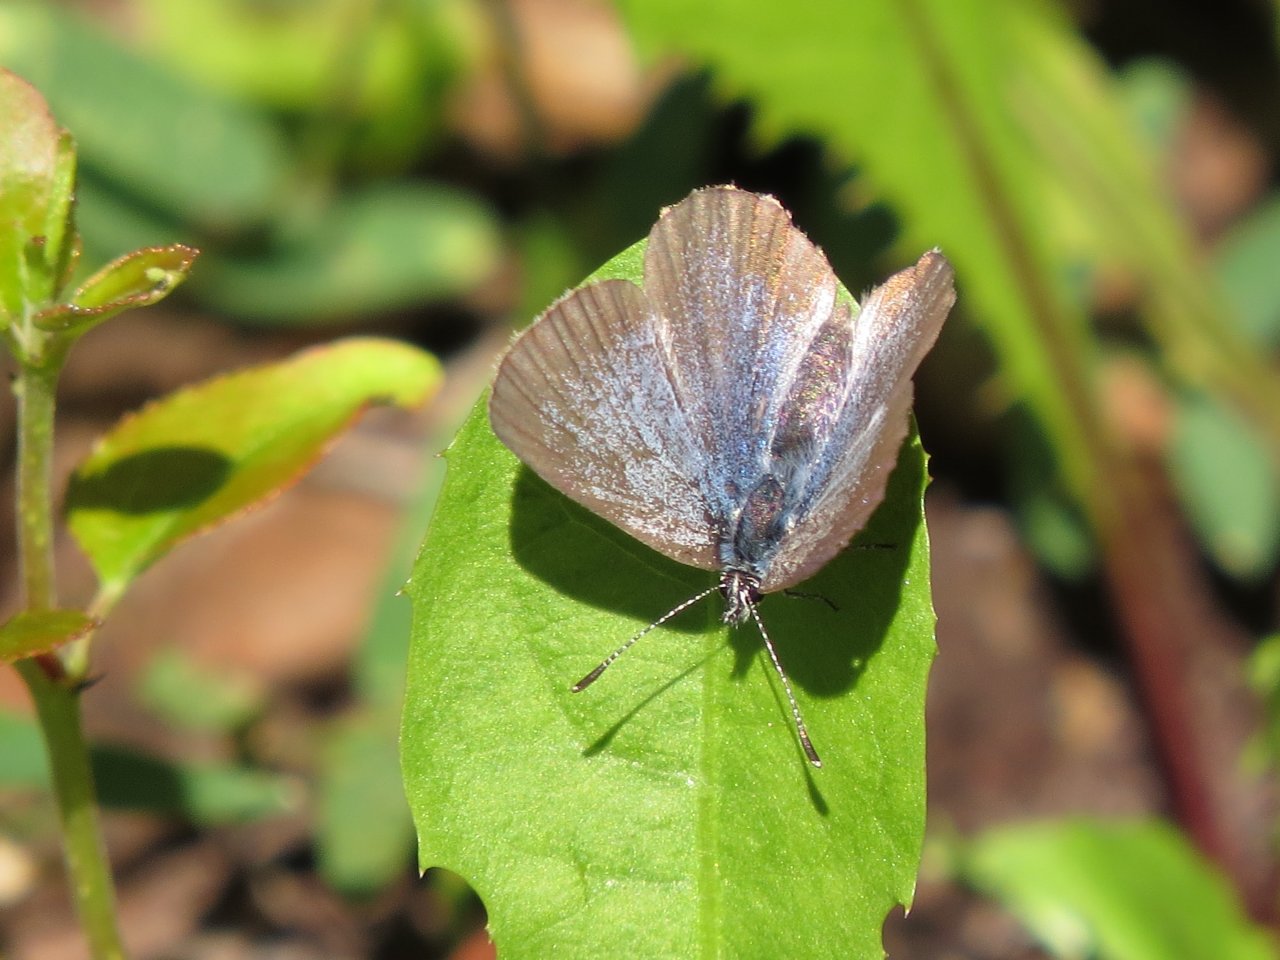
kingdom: Animalia
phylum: Arthropoda
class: Insecta
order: Lepidoptera
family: Lycaenidae
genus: Glaucopsyche
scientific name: Glaucopsyche lygdamus
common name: Silvery Blue
